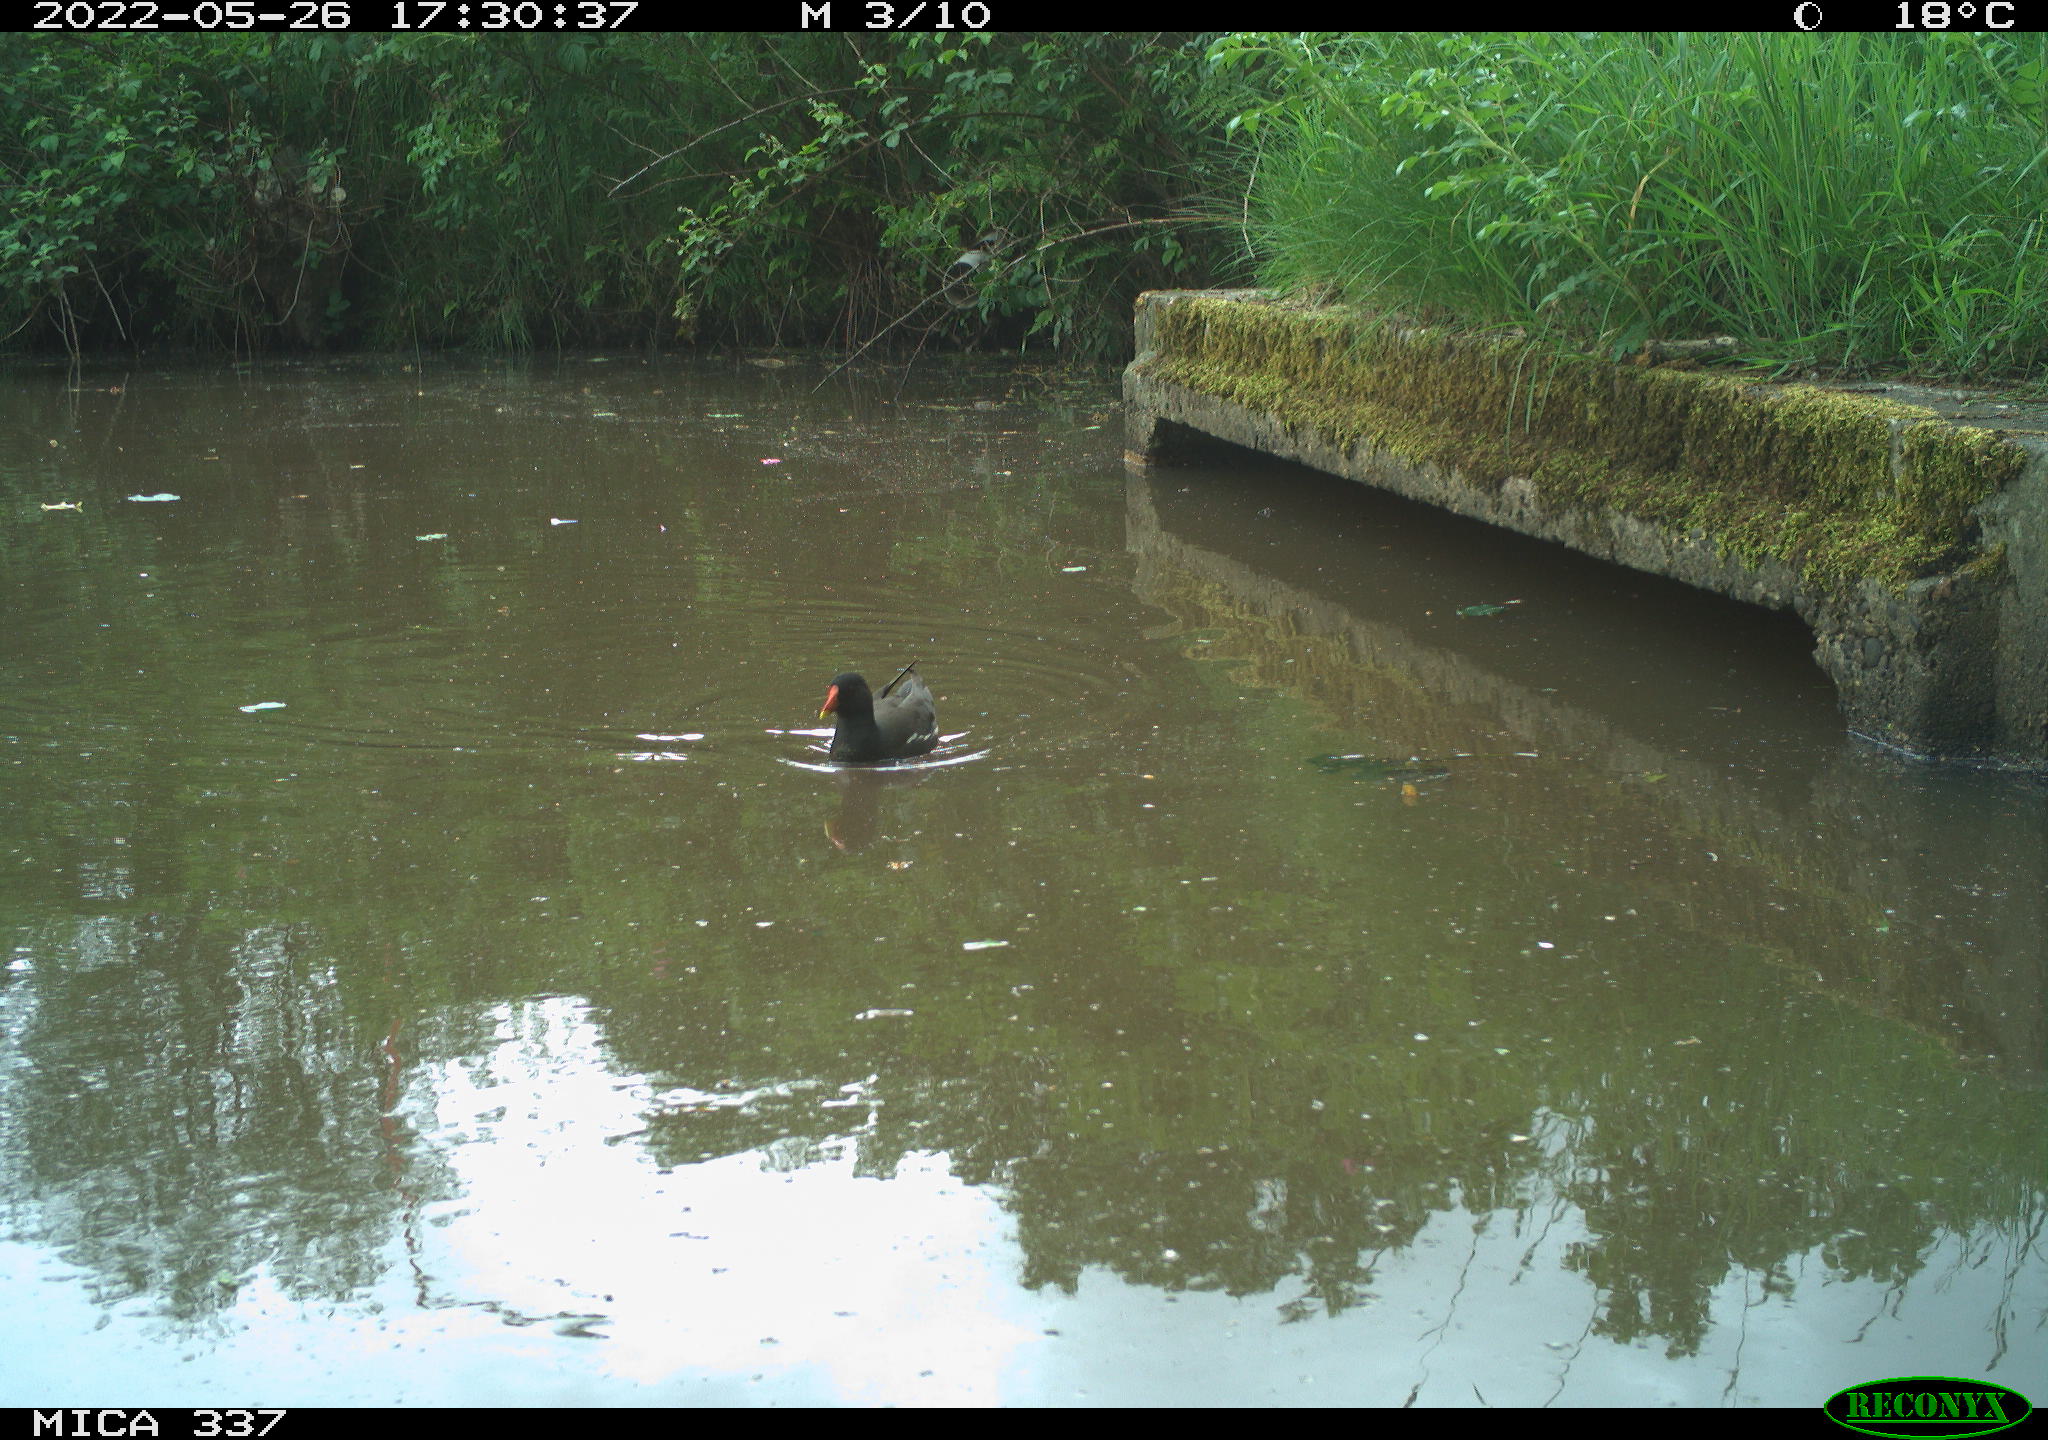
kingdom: Animalia
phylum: Chordata
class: Aves
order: Gruiformes
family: Rallidae
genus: Gallinula
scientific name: Gallinula chloropus
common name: Common moorhen
